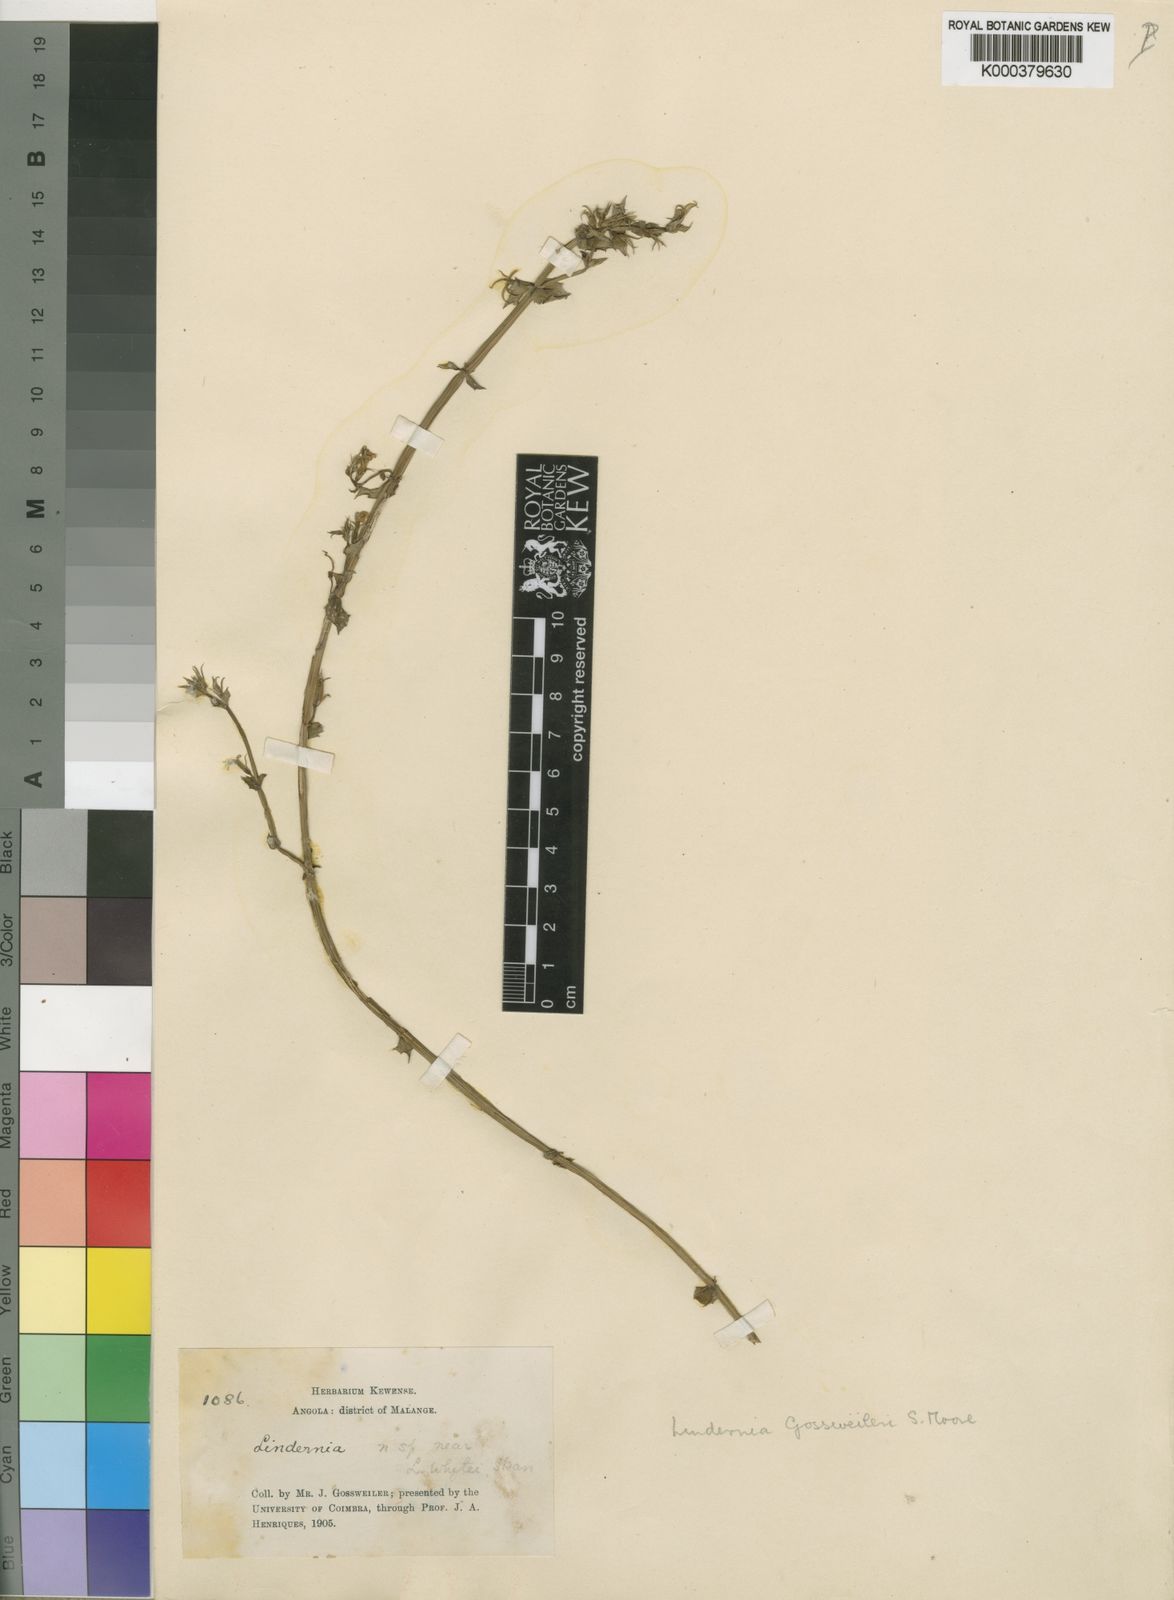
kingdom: Plantae
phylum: Tracheophyta
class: Magnoliopsida
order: Lamiales
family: Linderniaceae
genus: Crepidorhopalon
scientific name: Crepidorhopalon
